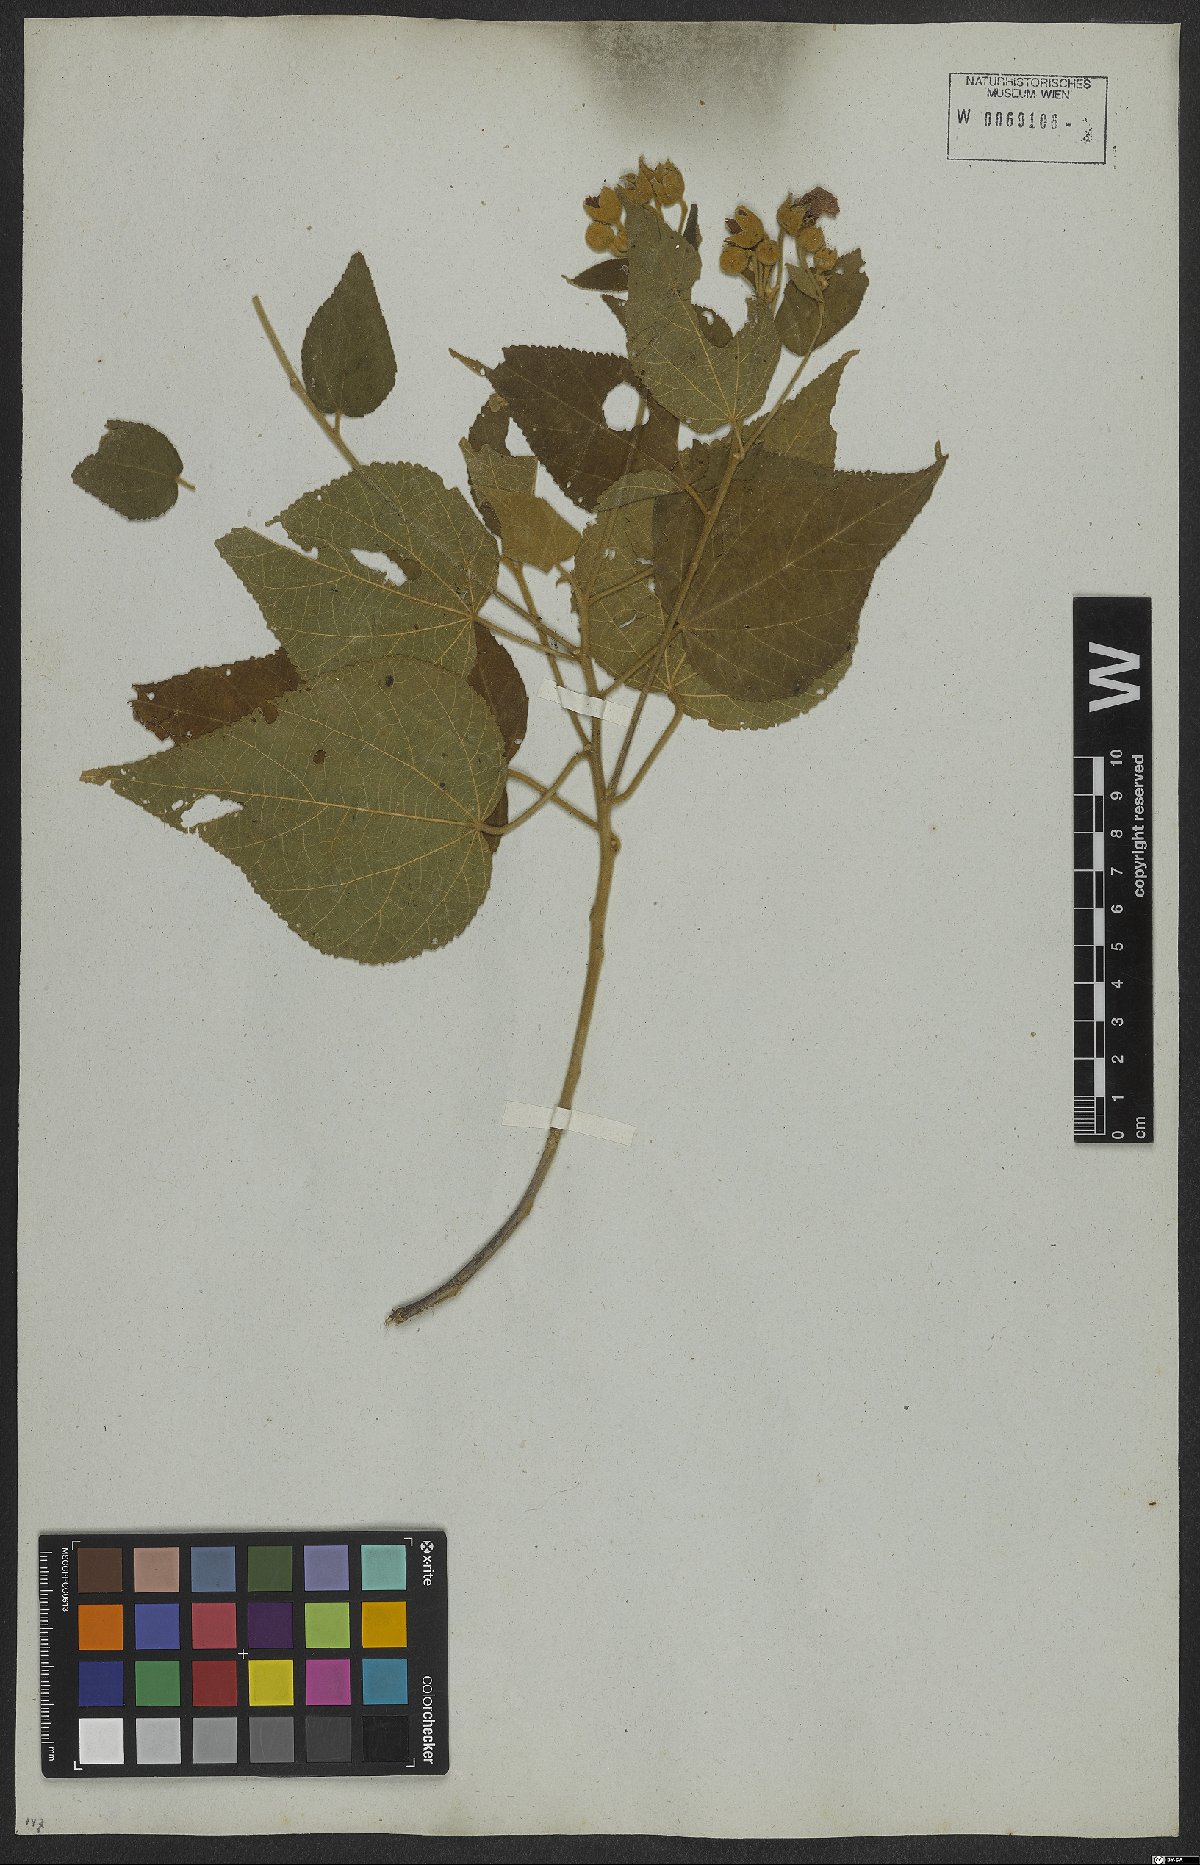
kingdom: Plantae
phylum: Tracheophyta
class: Magnoliopsida
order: Malvales
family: Malvaceae
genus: Bakeridesia
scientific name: Bakeridesia esculenta
